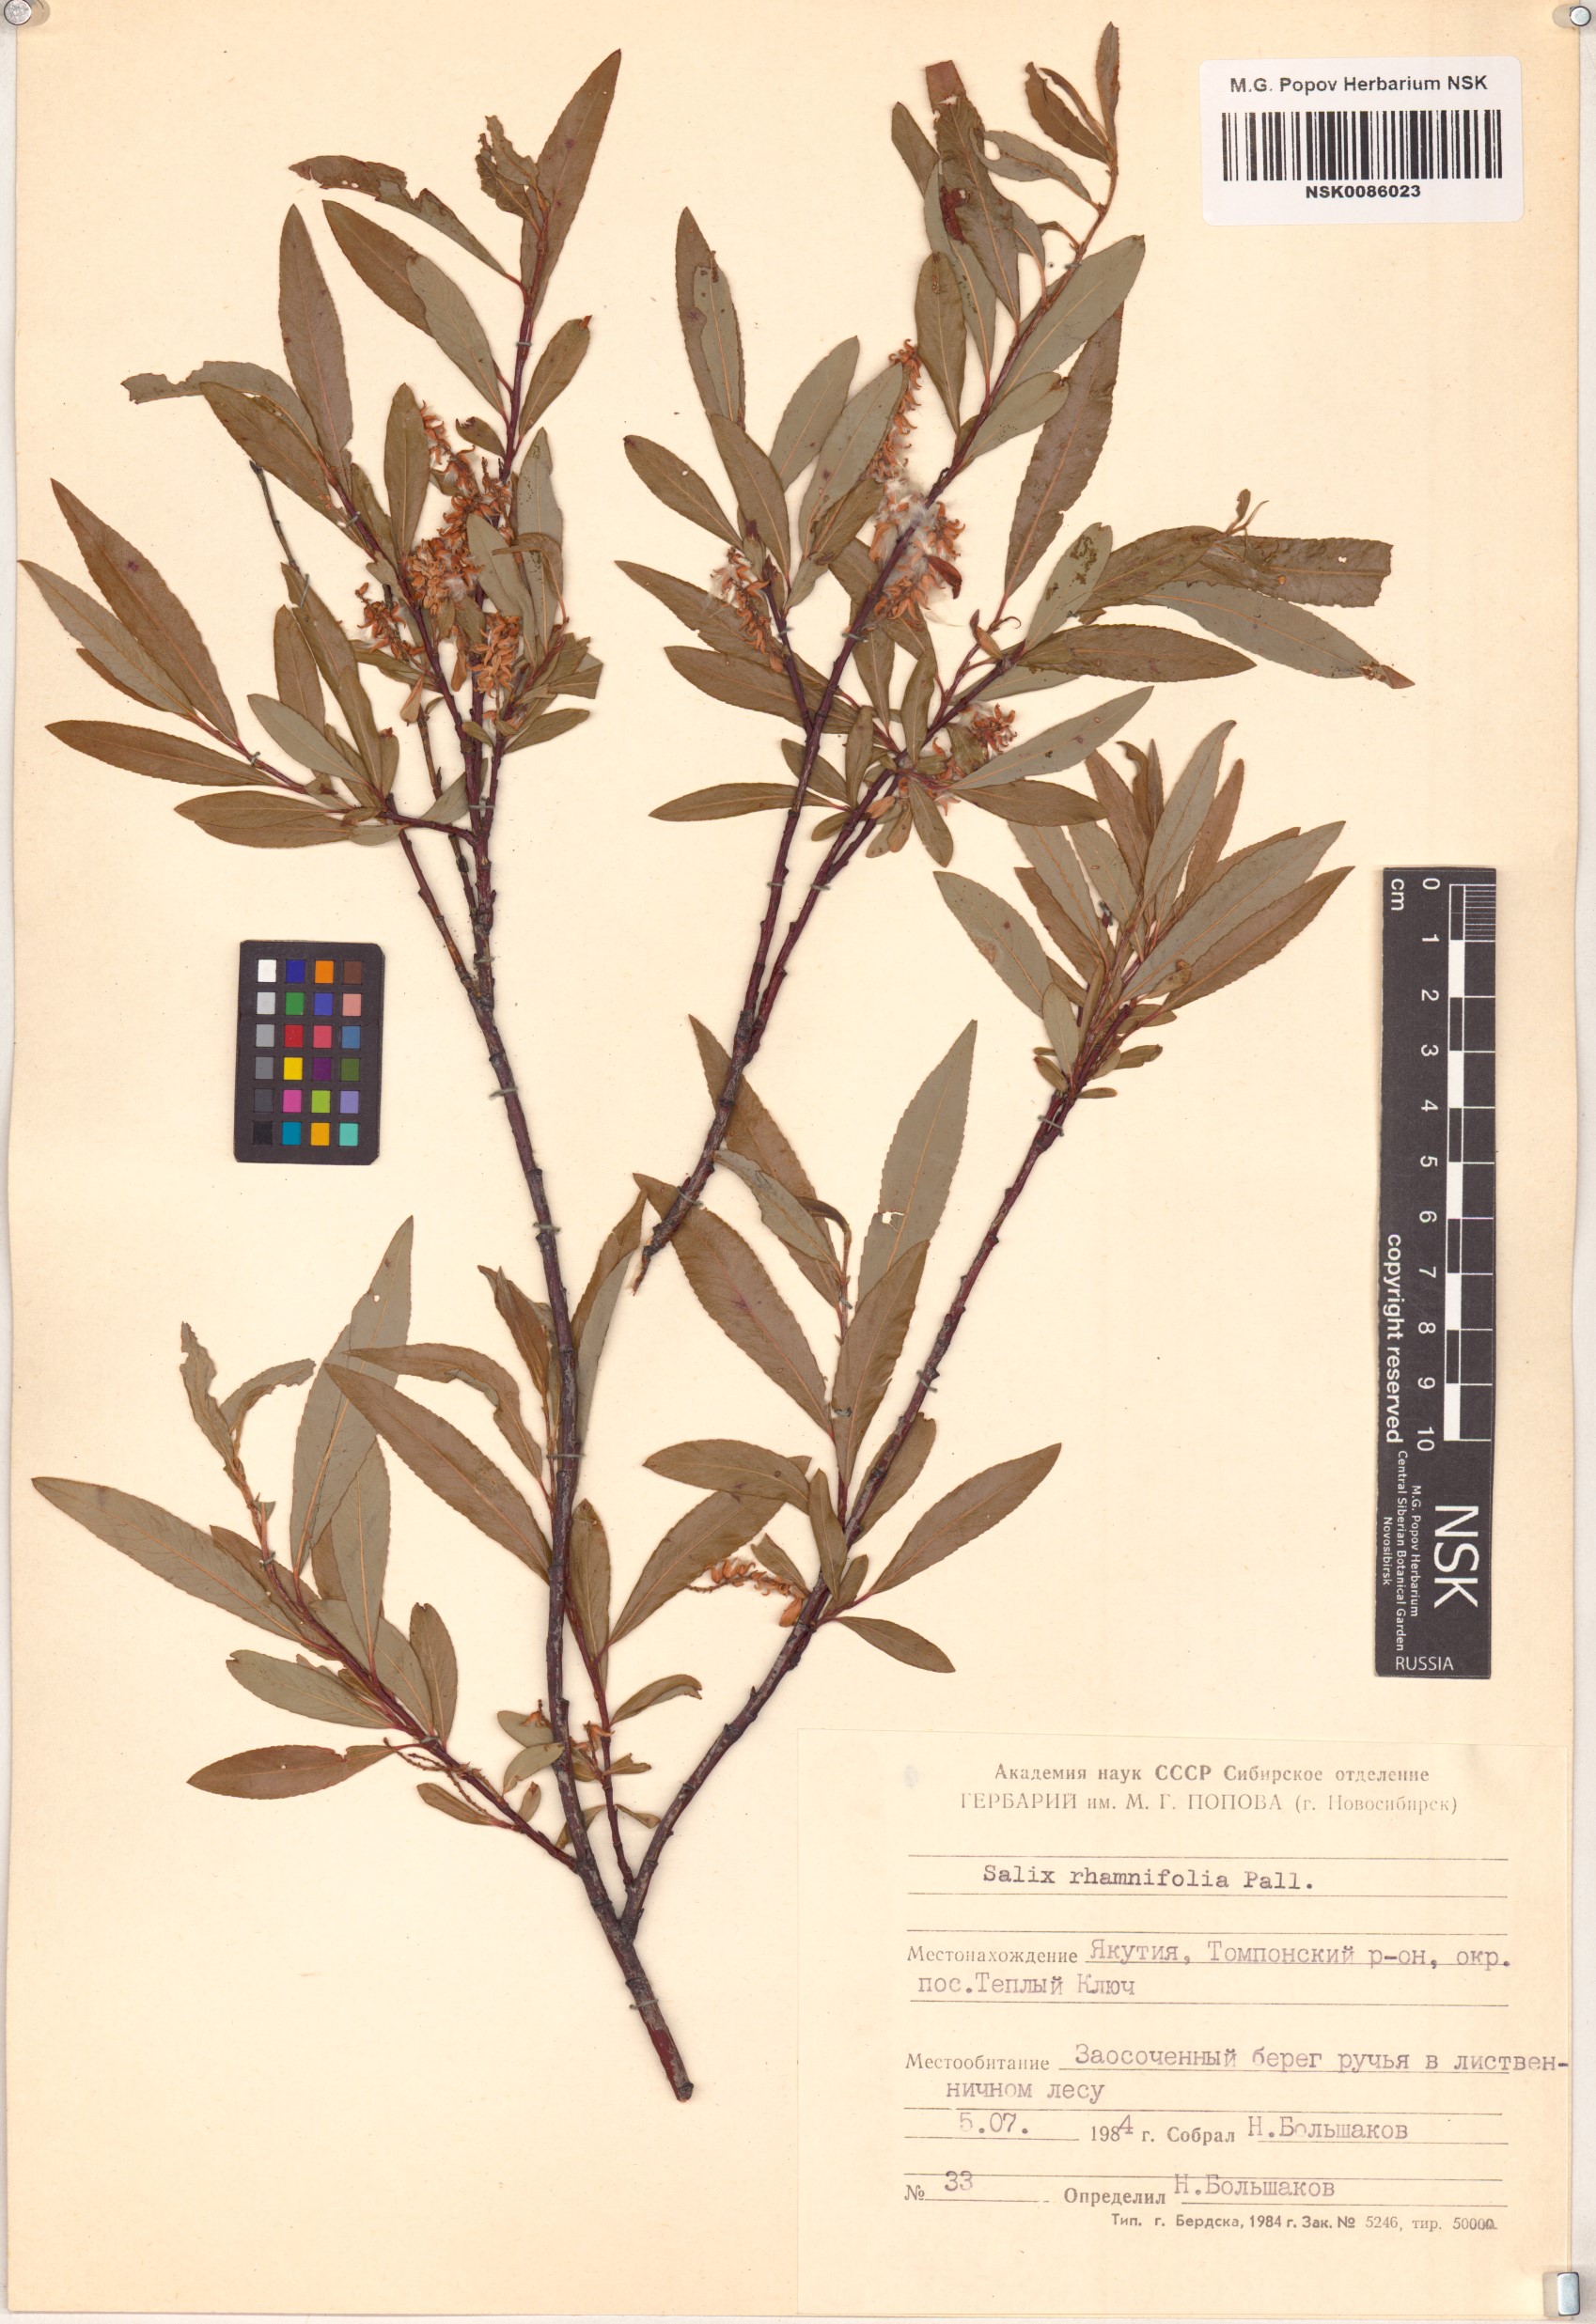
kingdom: Plantae
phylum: Tracheophyta
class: Magnoliopsida
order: Malpighiales
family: Salicaceae
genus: Salix
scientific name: Salix rhamnifolia
